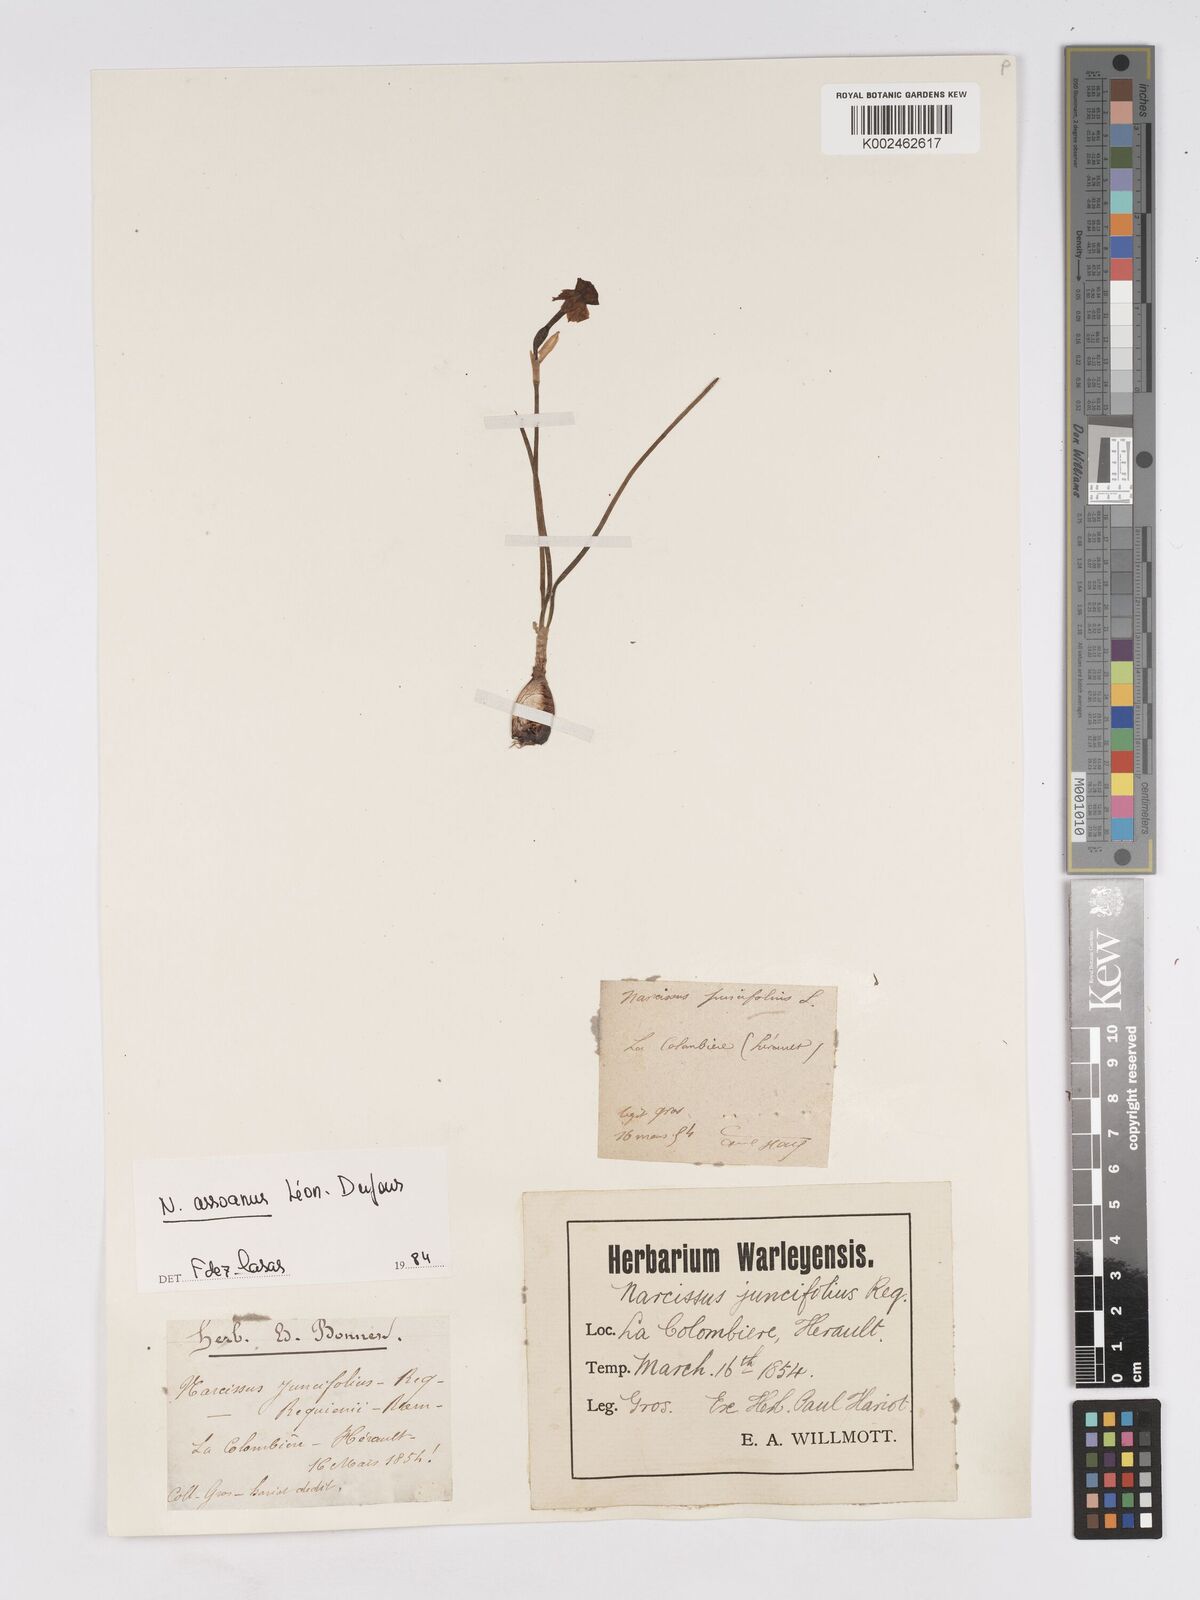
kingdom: Plantae
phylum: Tracheophyta
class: Liliopsida
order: Asparagales
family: Amaryllidaceae
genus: Narcissus
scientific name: Narcissus assoanus
